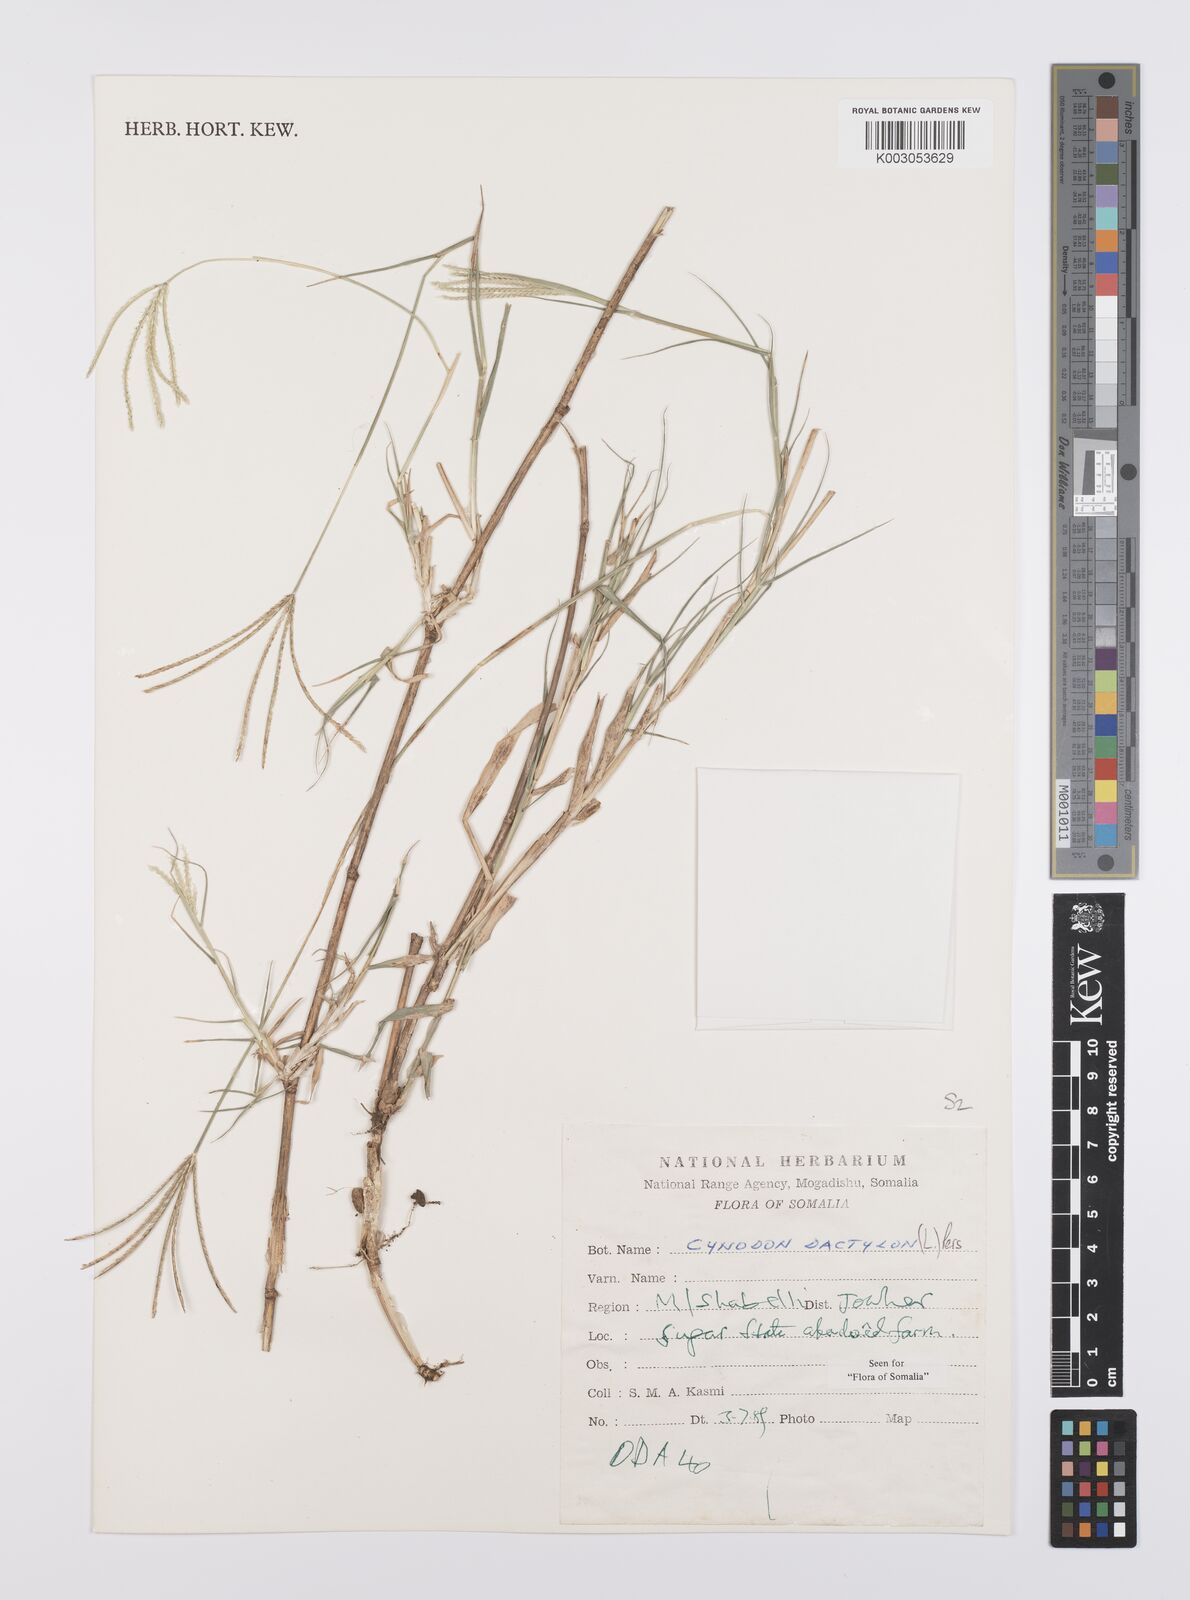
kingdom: Plantae
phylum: Tracheophyta
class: Liliopsida
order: Poales
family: Poaceae
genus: Cynodon
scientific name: Cynodon nlemfuensis
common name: African bermudagrass
